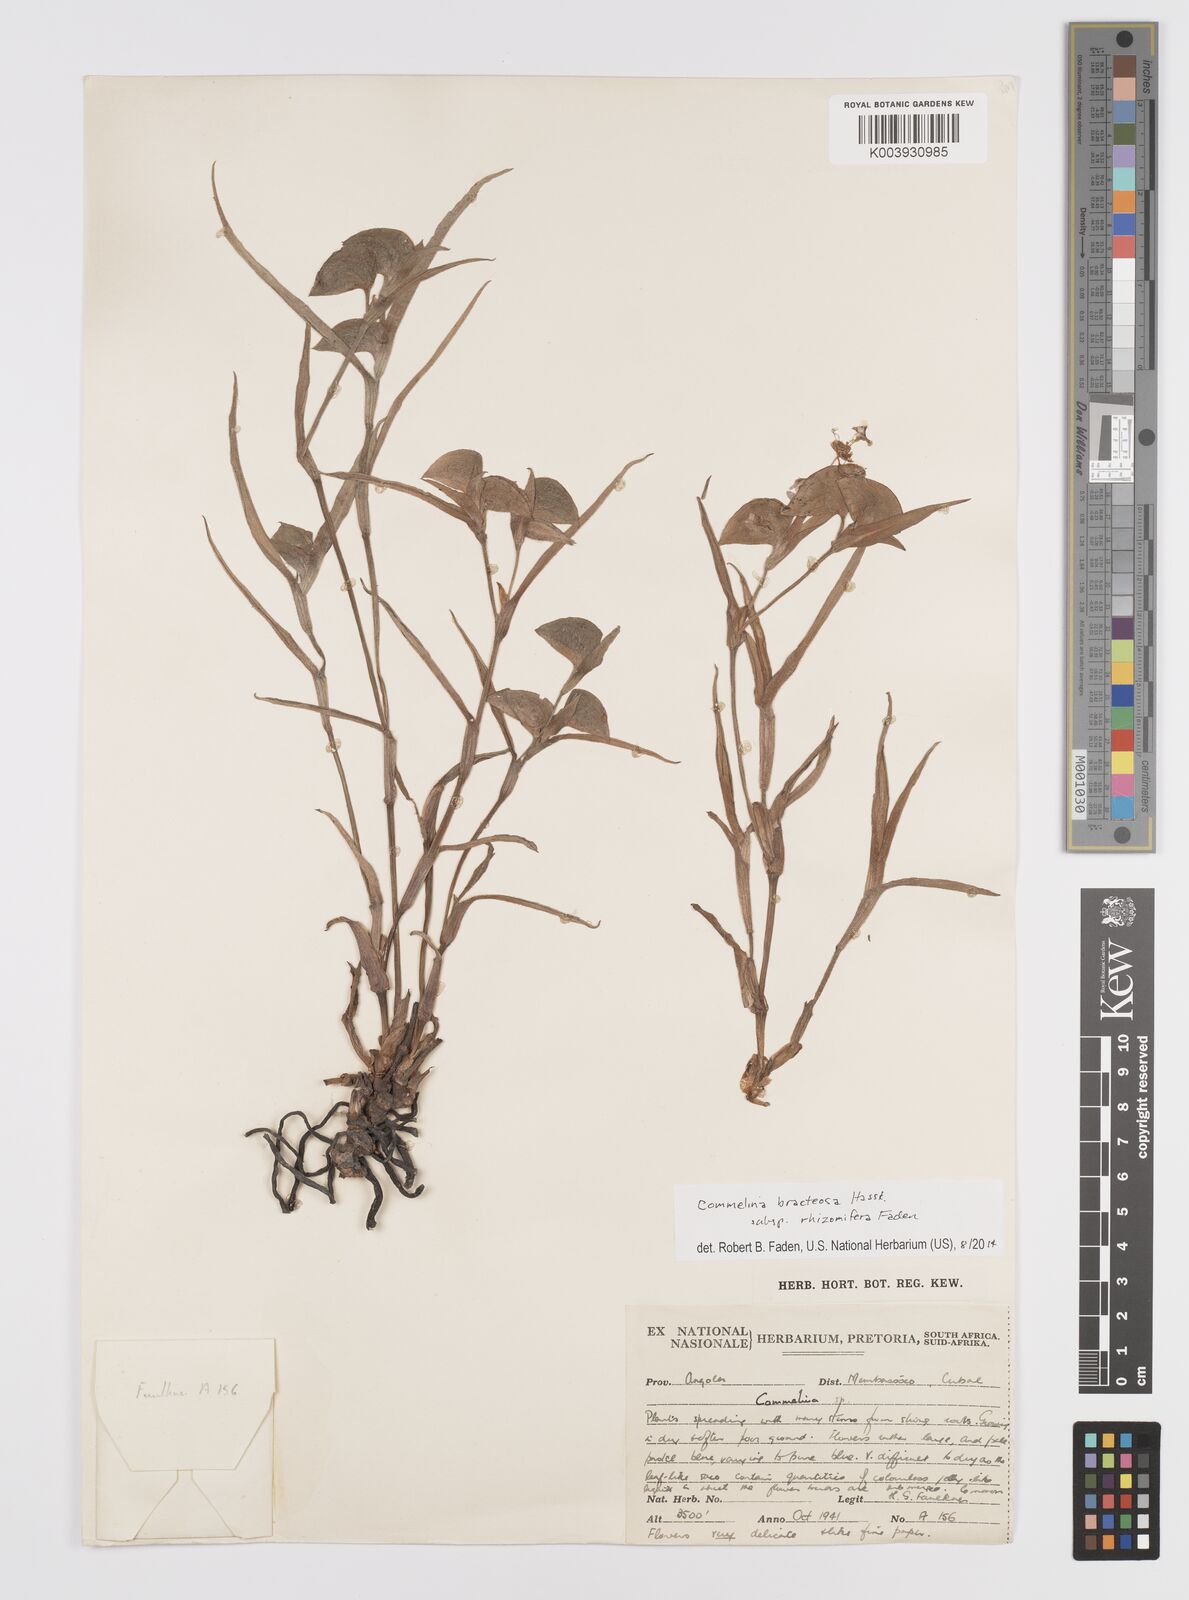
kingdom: Plantae
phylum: Tracheophyta
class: Liliopsida
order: Commelinales
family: Commelinaceae
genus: Commelina
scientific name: Commelina bracteosa
